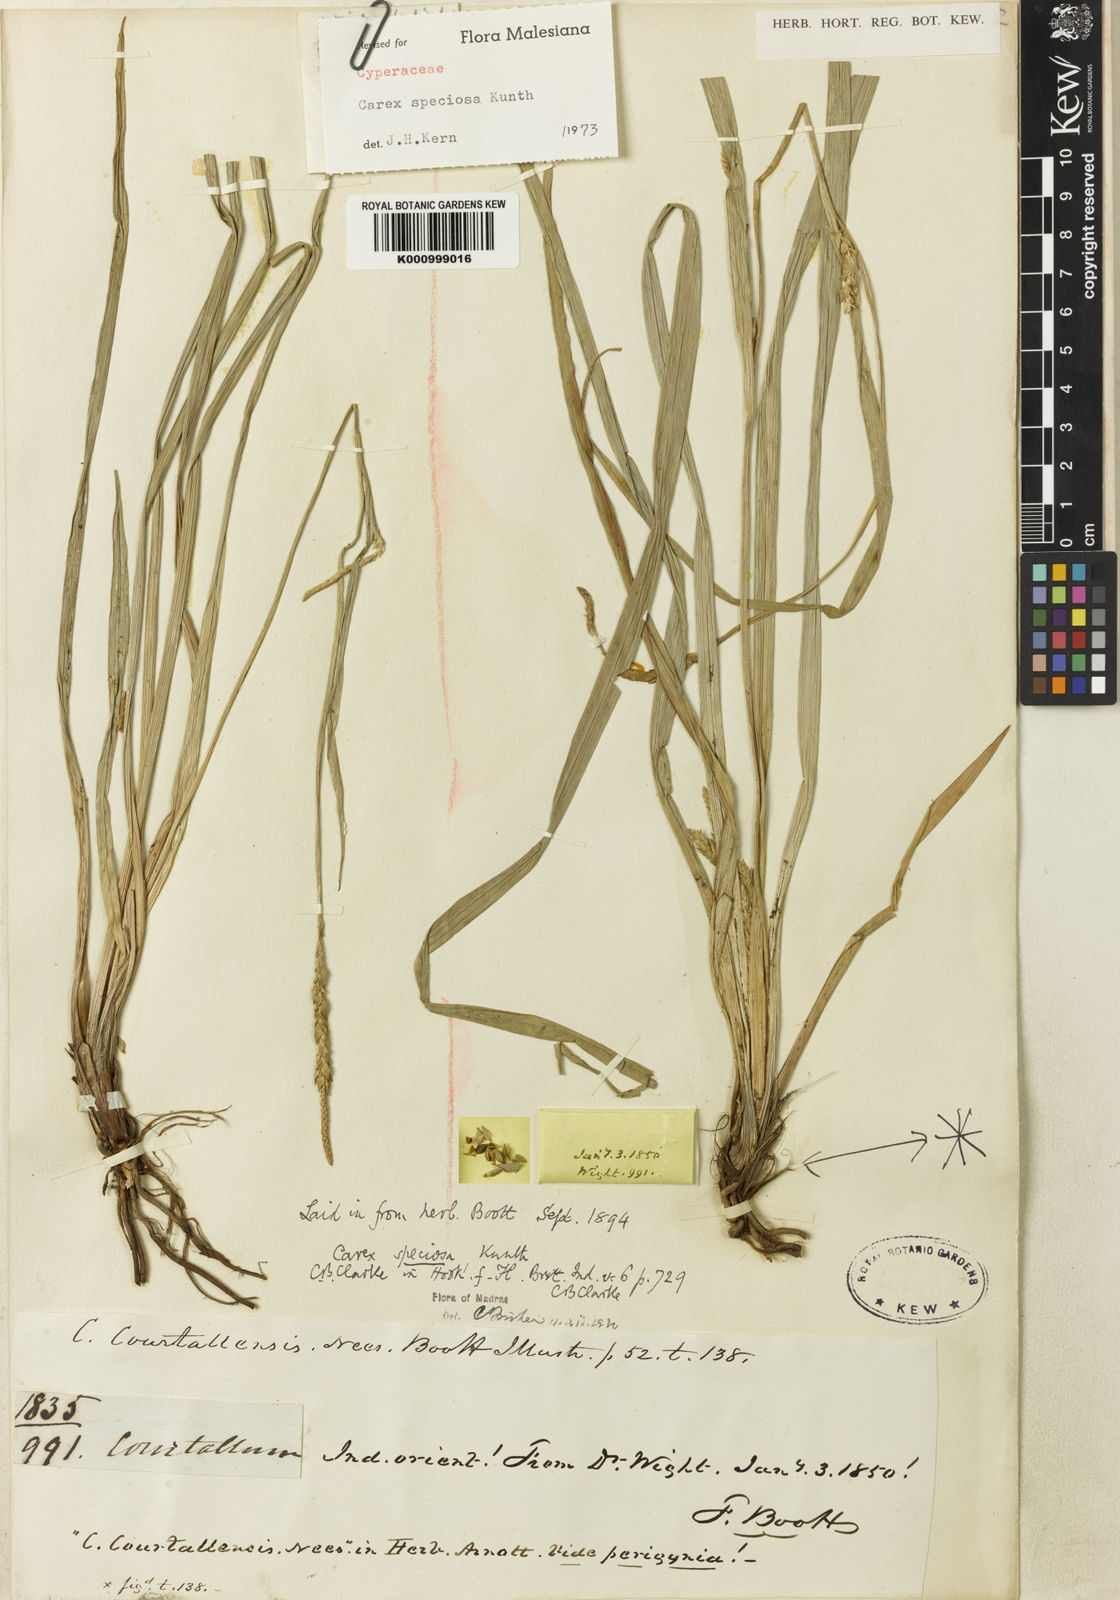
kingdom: Plantae
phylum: Tracheophyta
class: Liliopsida
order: Poales
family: Cyperaceae
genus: Carex
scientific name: Carex speciosa
